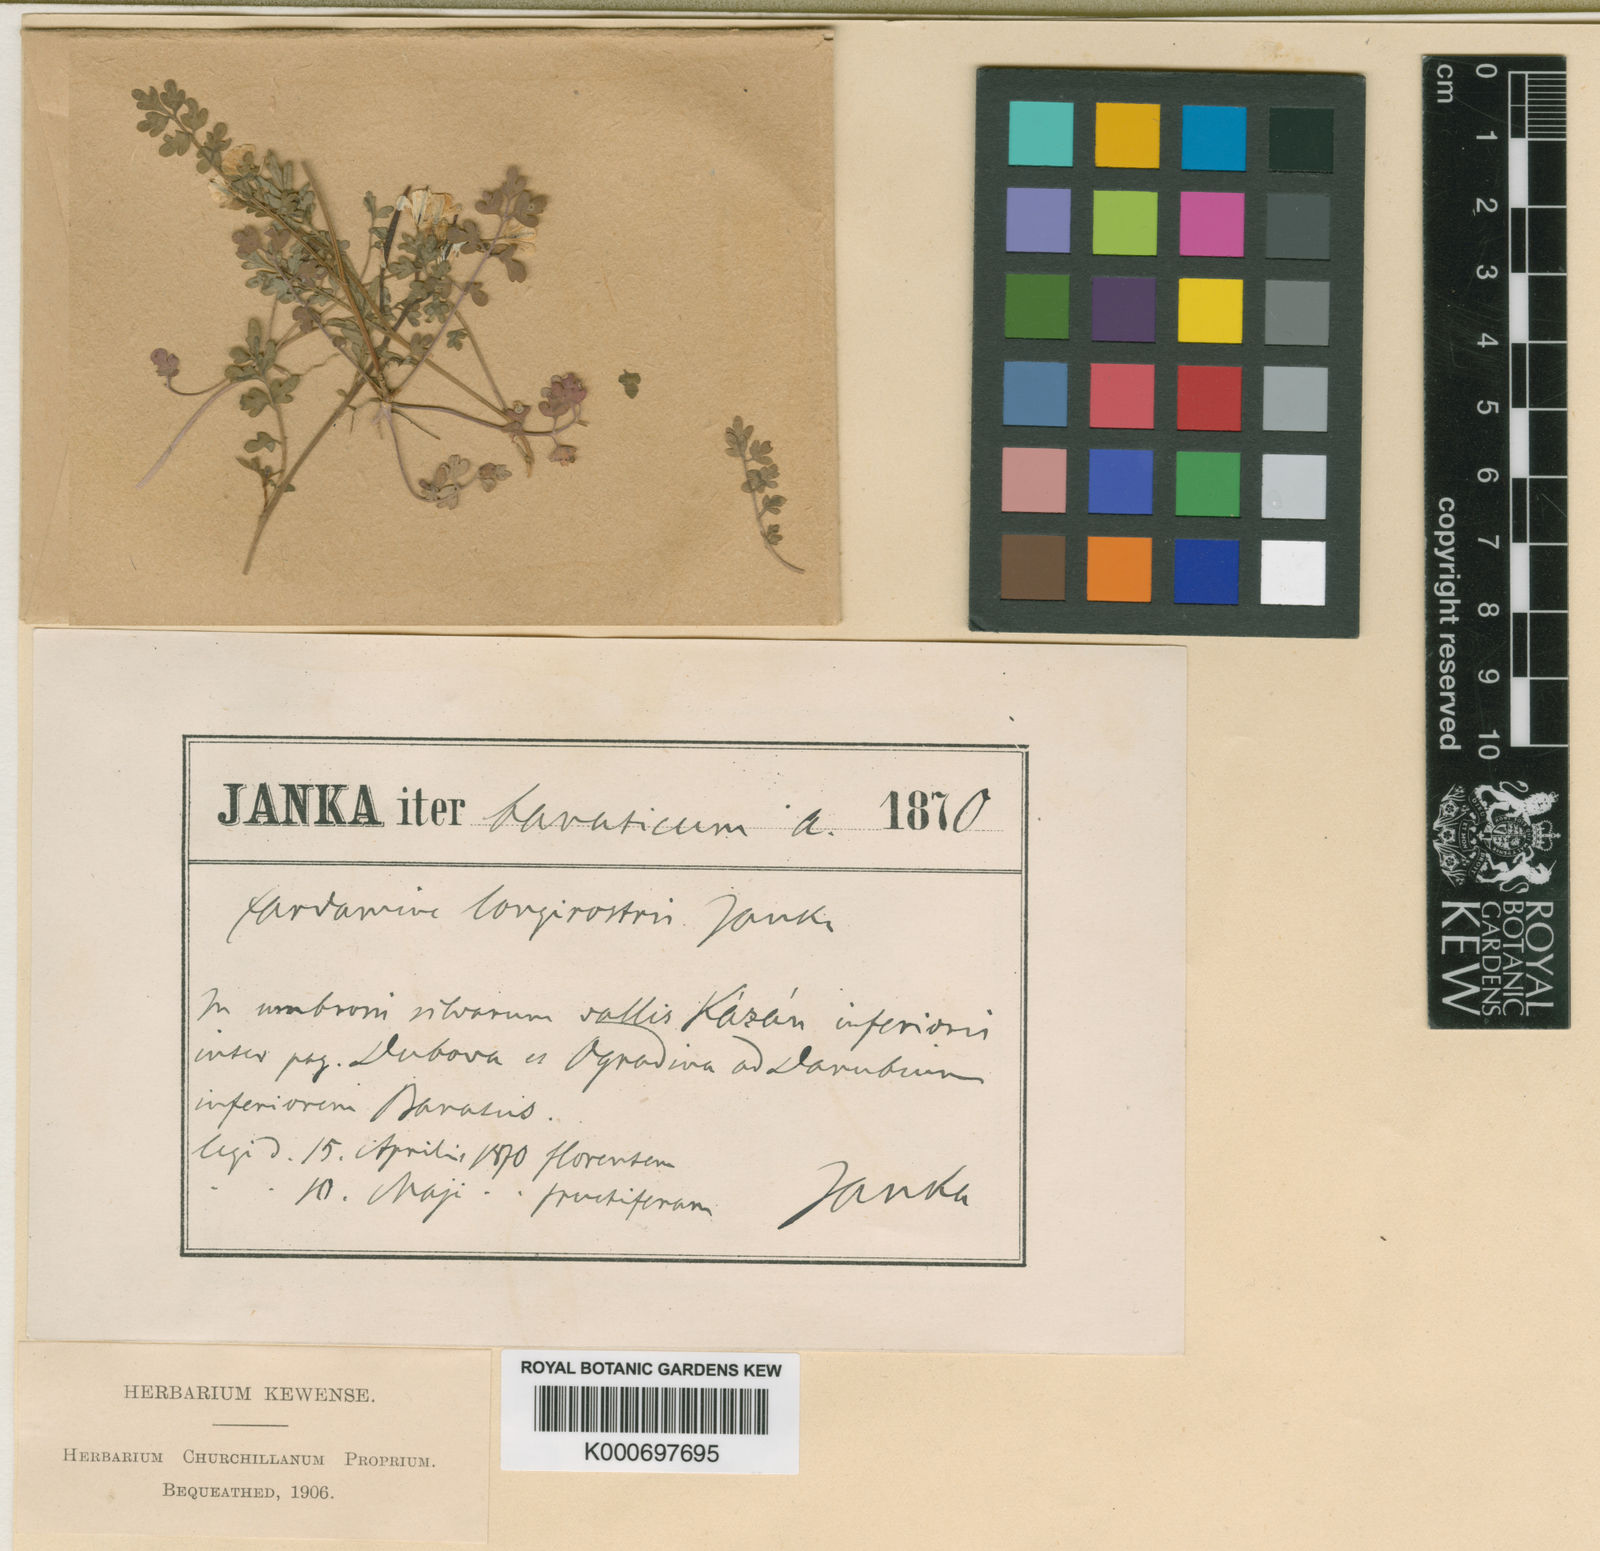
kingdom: Plantae
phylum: Tracheophyta
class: Magnoliopsida
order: Brassicales
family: Brassicaceae
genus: Cardamine
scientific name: Cardamine graeca
